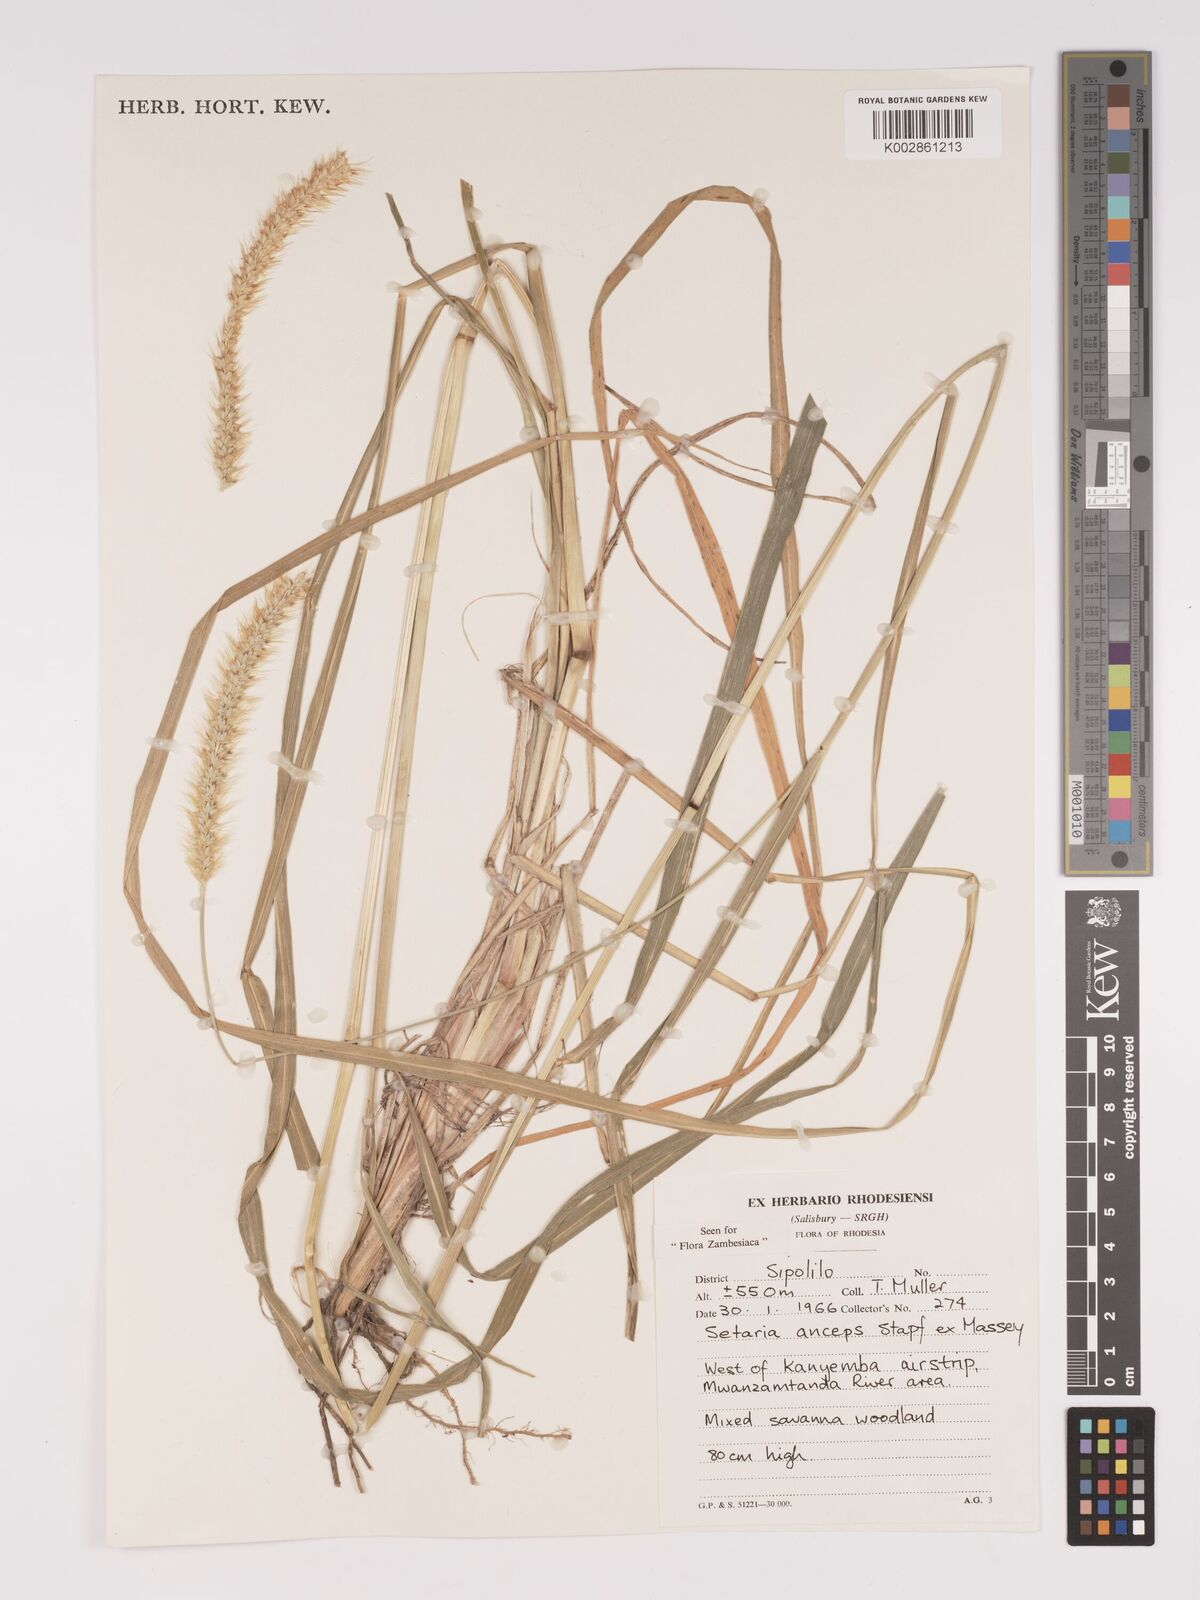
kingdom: Plantae
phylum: Tracheophyta
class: Liliopsida
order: Poales
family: Poaceae
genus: Setaria
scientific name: Setaria sphacelata
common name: African bristlegrass
